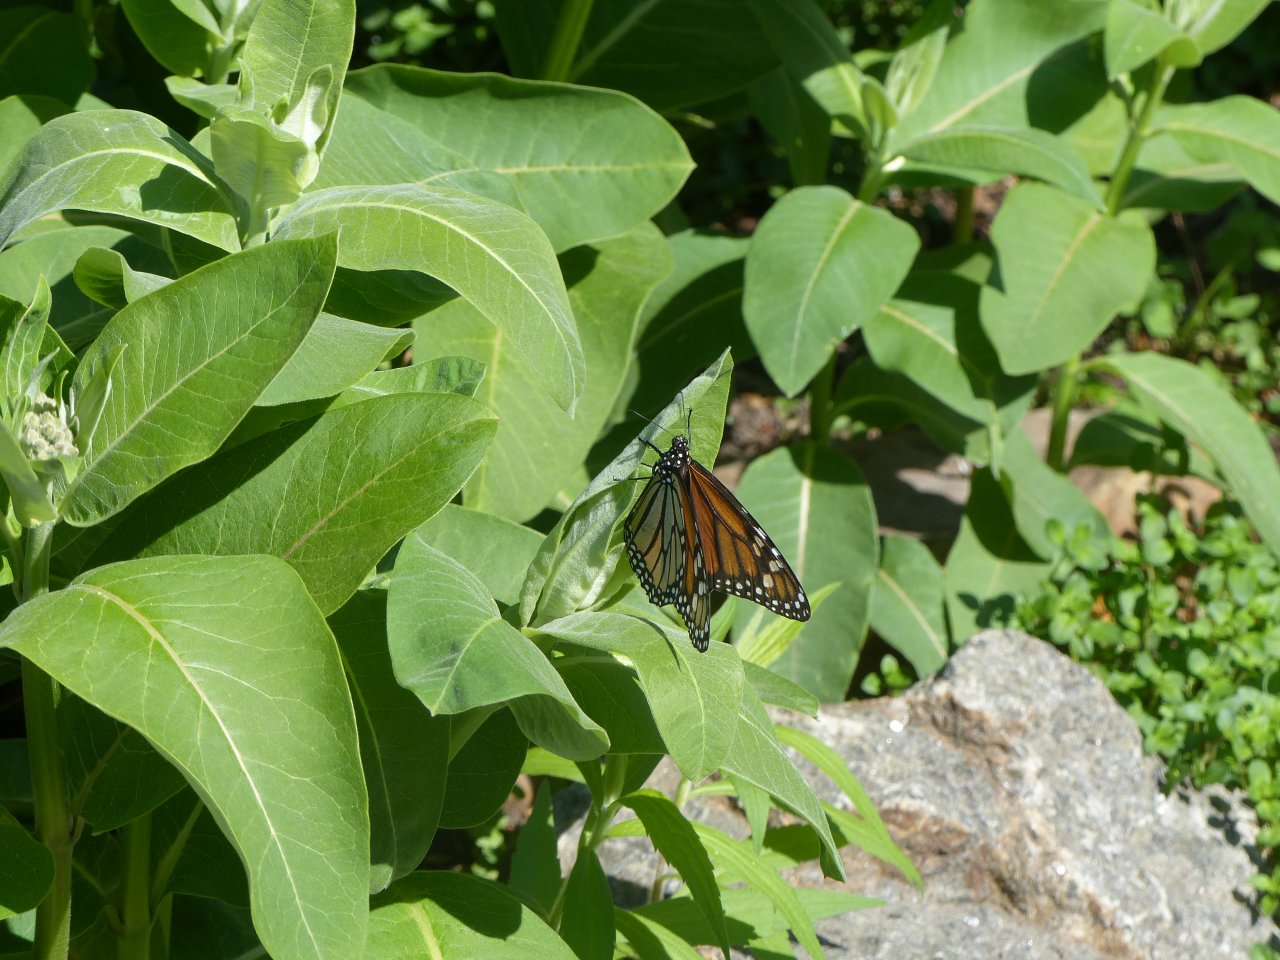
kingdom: Animalia
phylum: Arthropoda
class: Insecta
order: Lepidoptera
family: Nymphalidae
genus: Danaus
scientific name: Danaus plexippus
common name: Monarch
